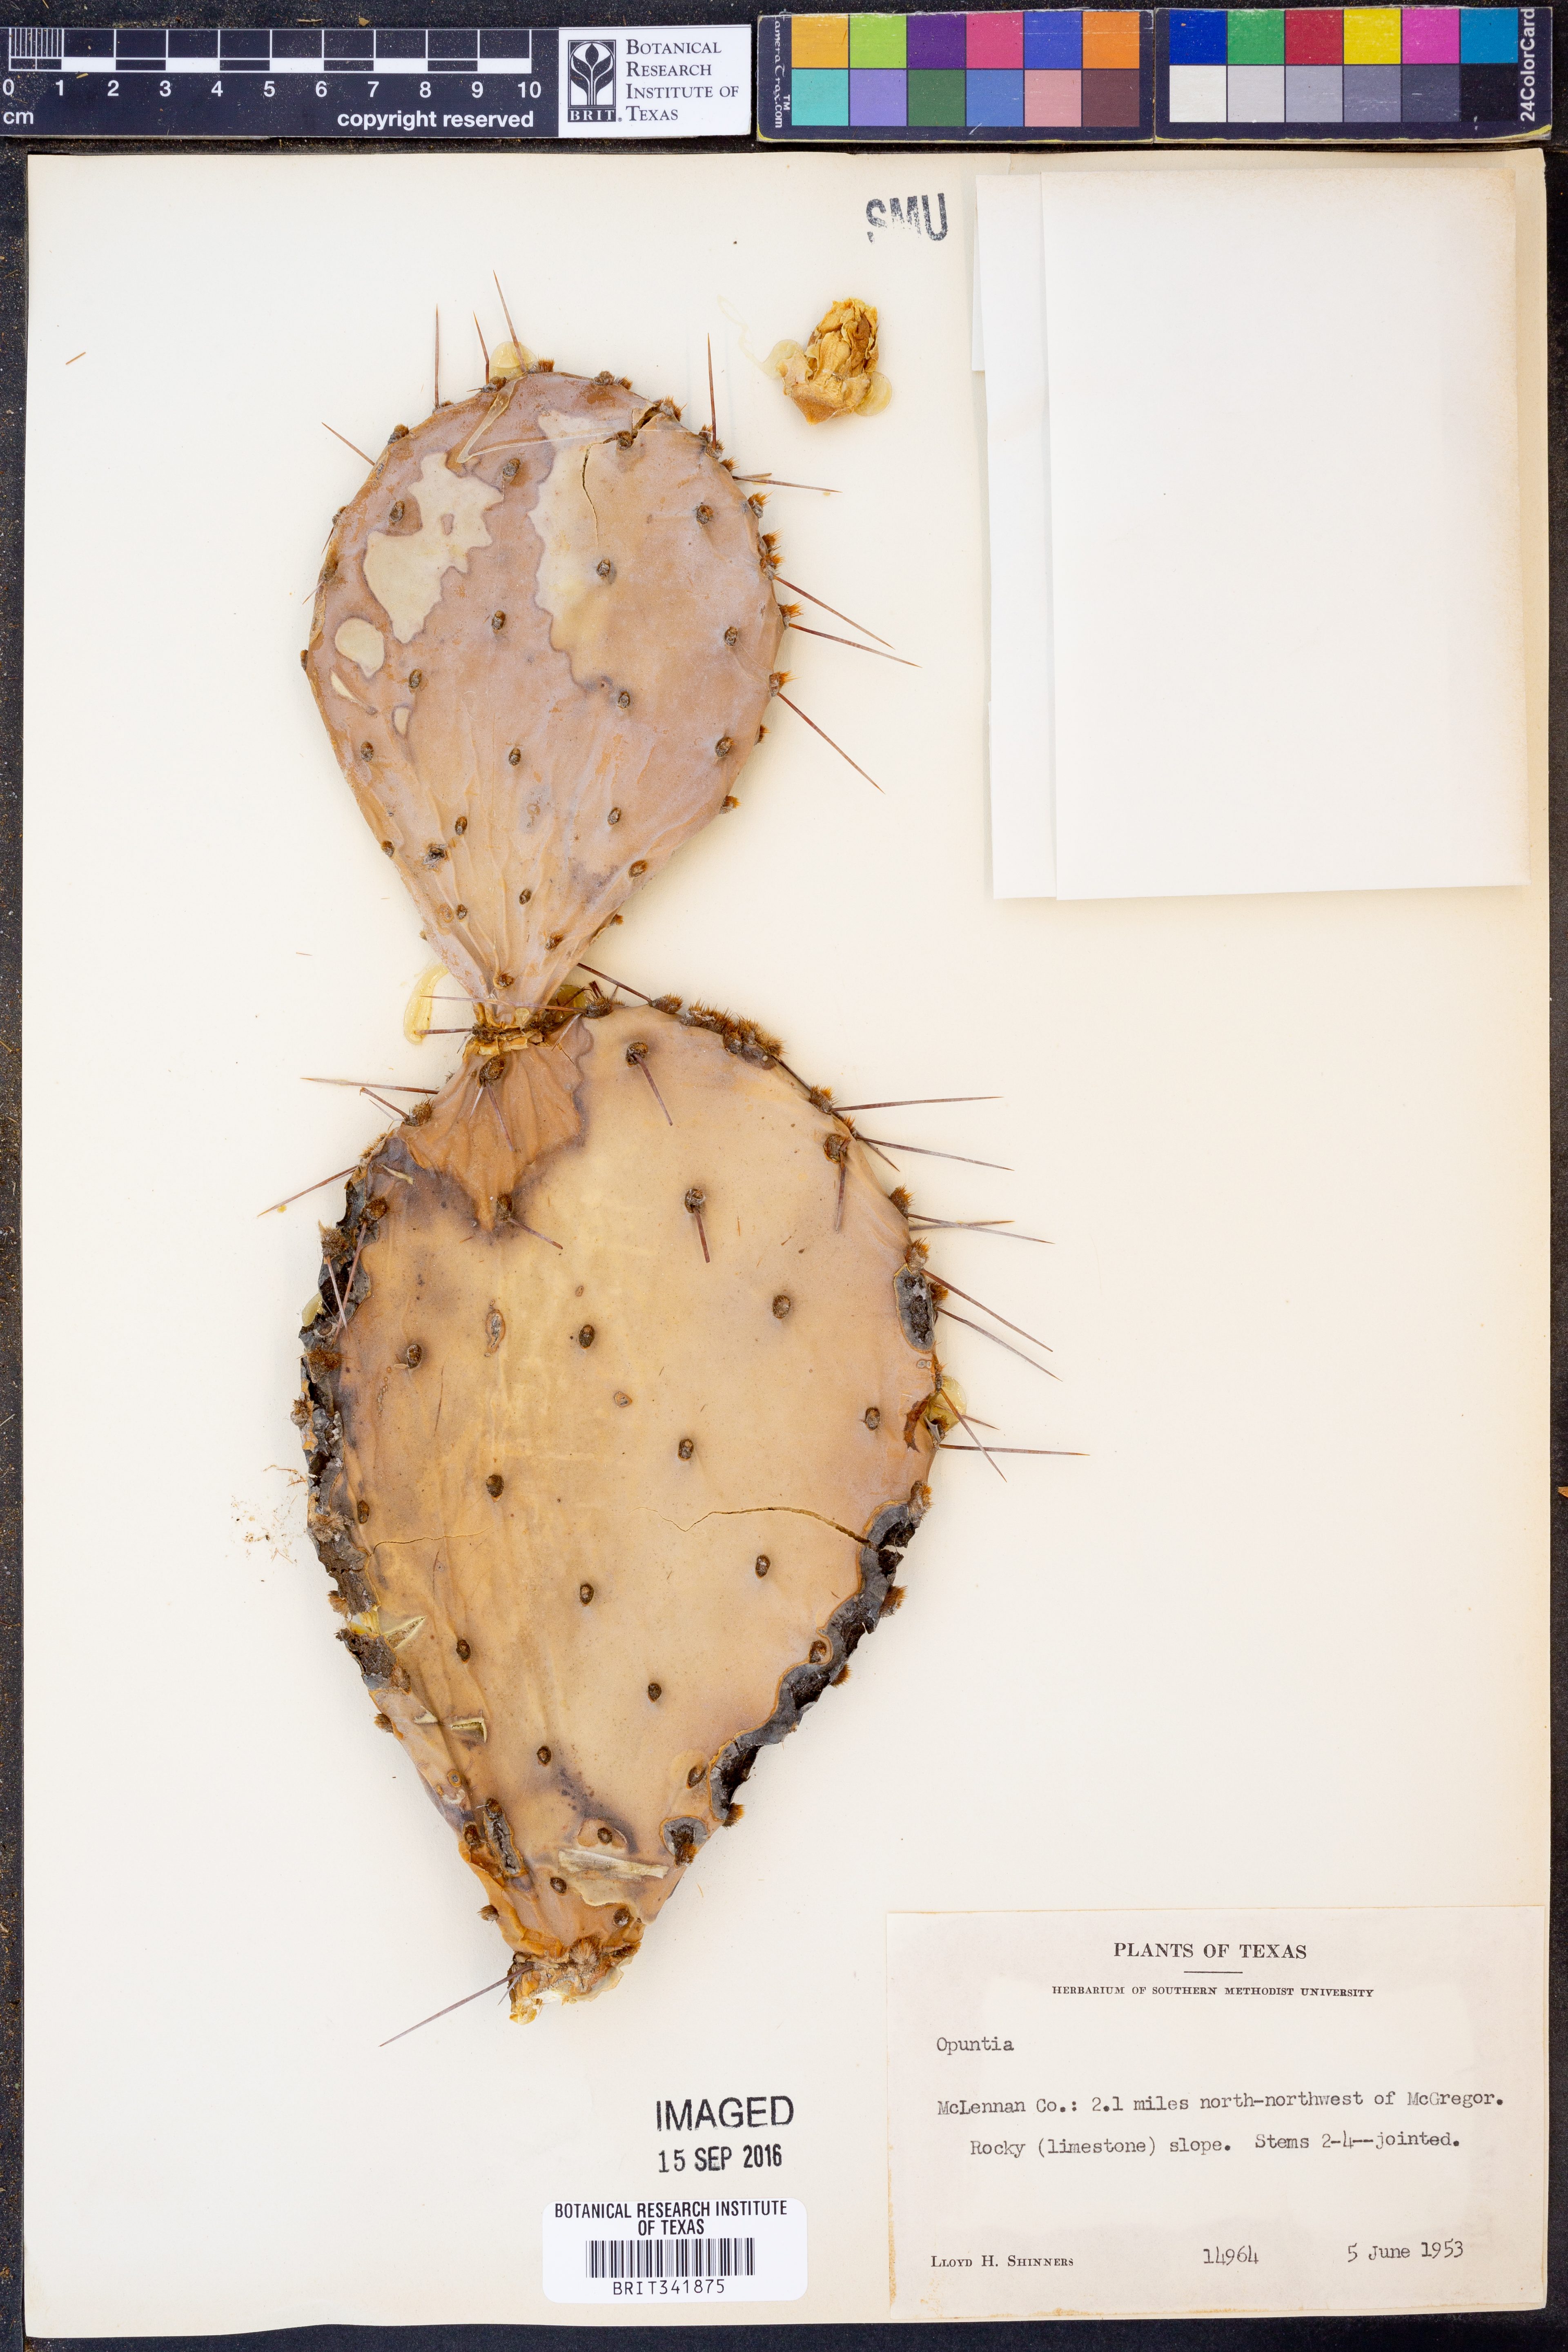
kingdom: Plantae
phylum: Tracheophyta
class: Magnoliopsida
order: Caryophyllales
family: Cactaceae
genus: Opuntia
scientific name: Opuntia
